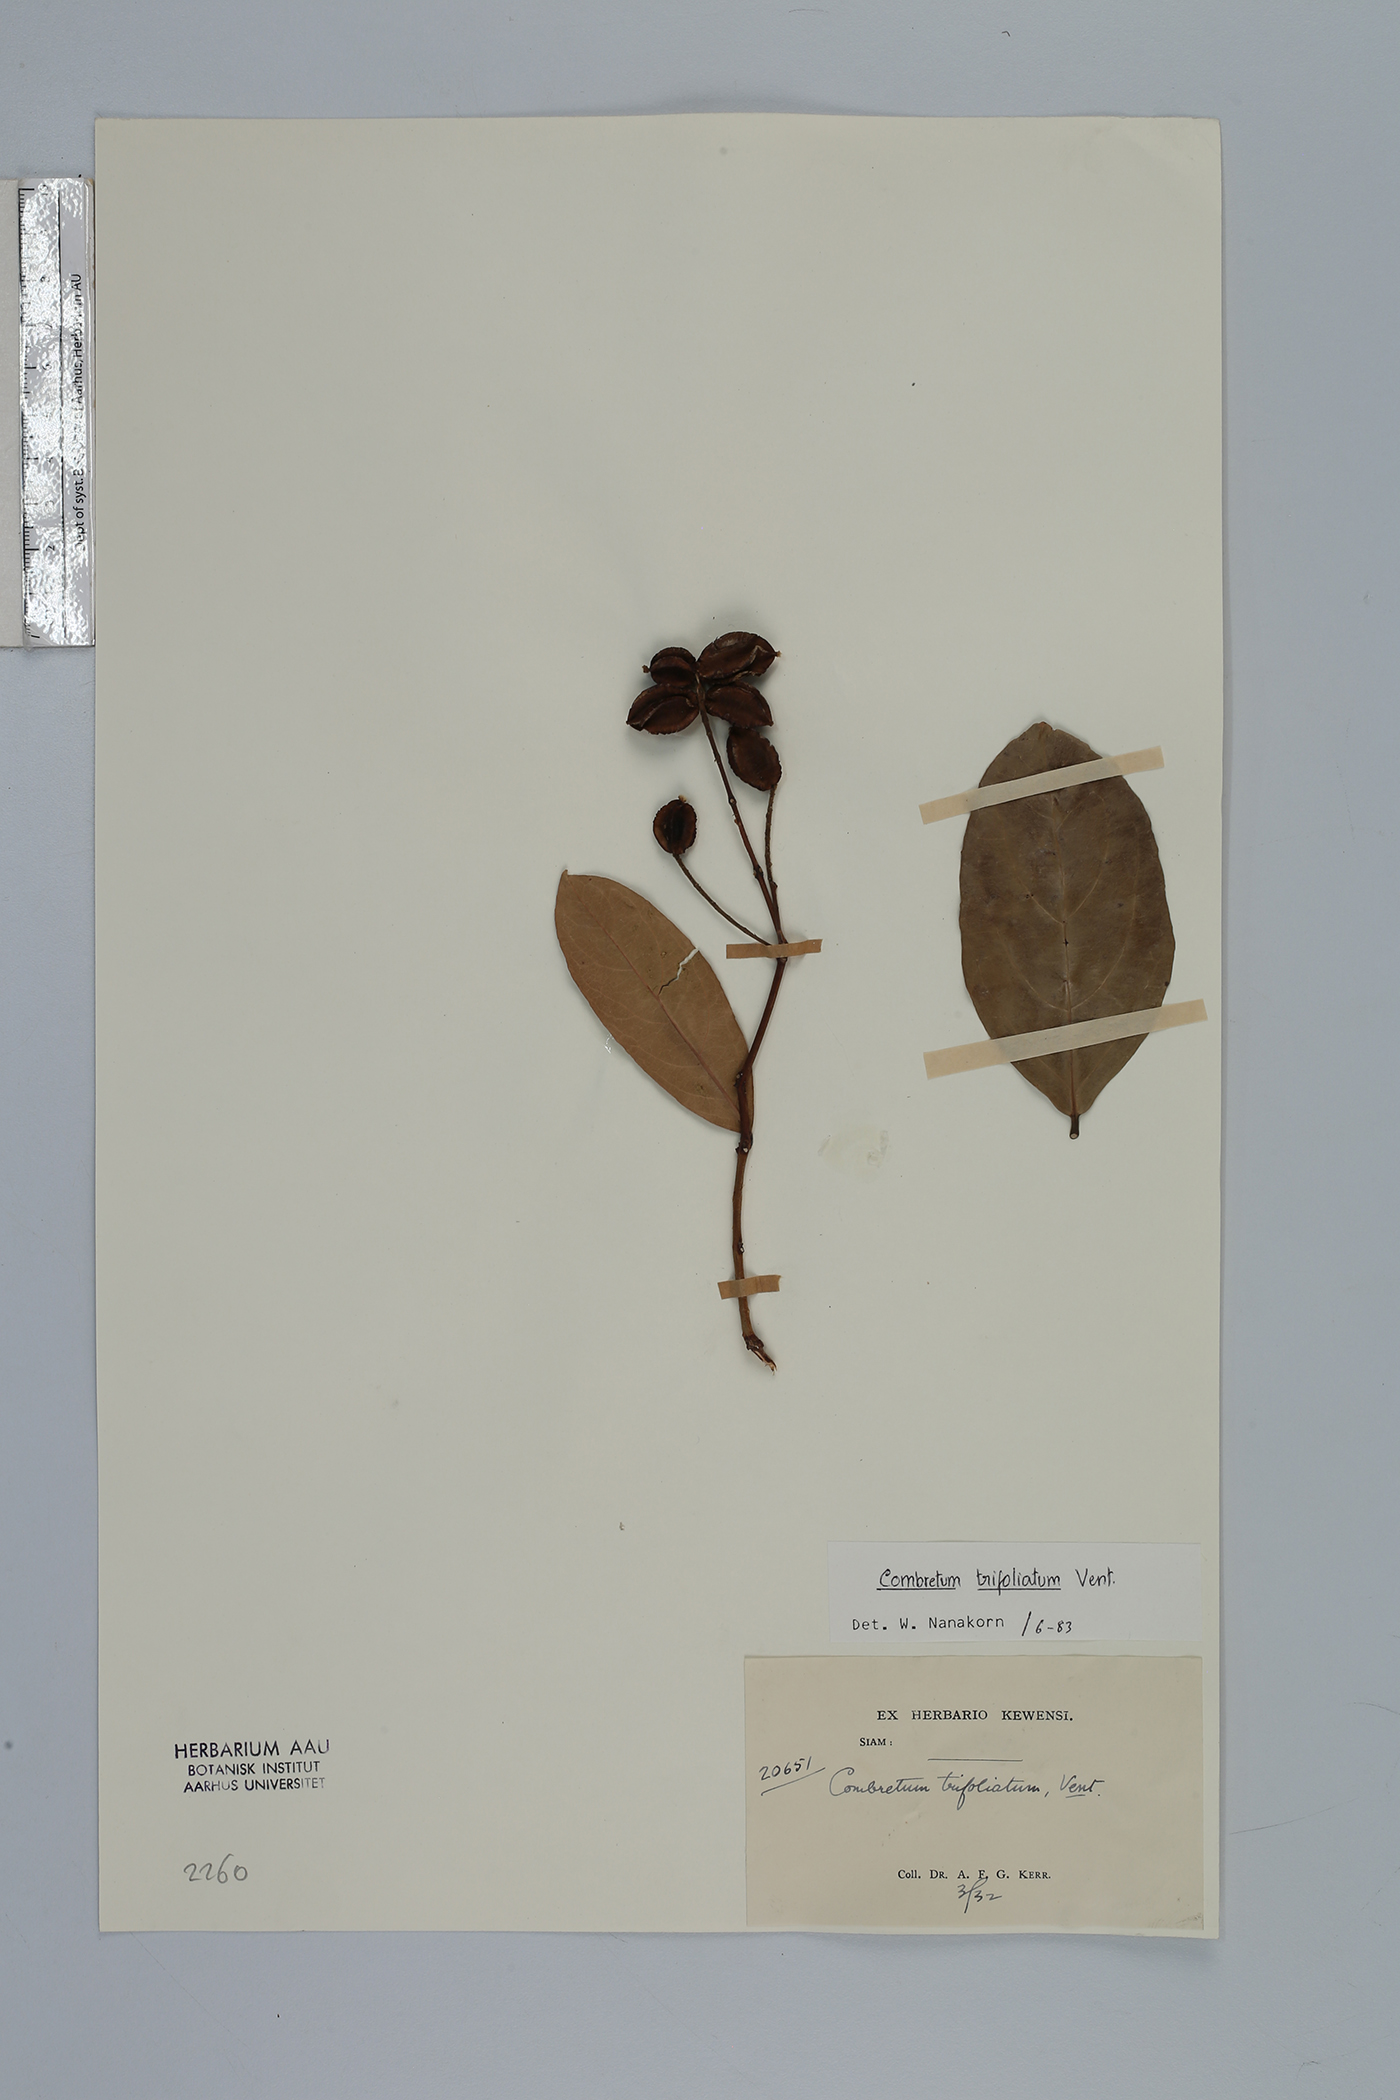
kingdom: Plantae
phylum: Tracheophyta
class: Magnoliopsida
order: Myrtales
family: Combretaceae
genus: Combretum
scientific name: Combretum trifoliatum
